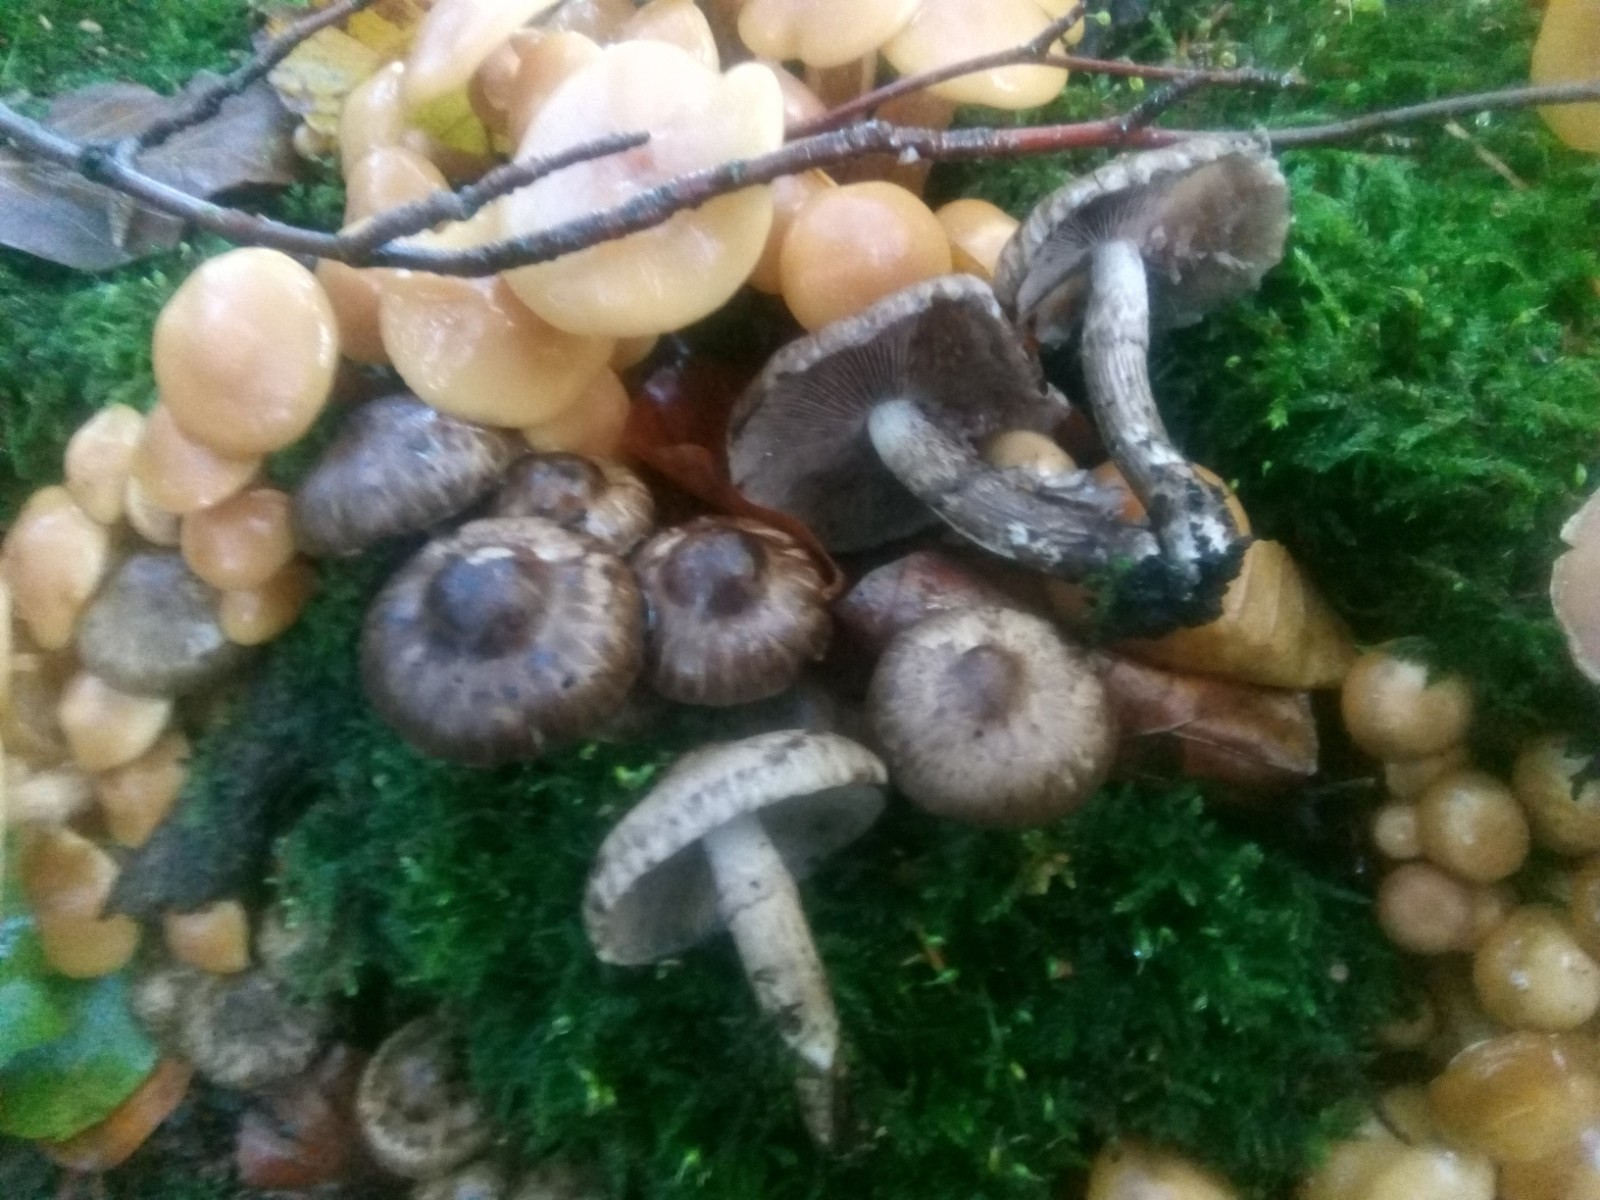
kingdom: Fungi
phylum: Basidiomycota
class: Agaricomycetes
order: Agaricales
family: Psathyrellaceae
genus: Psathyrella
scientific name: Psathyrella maculata
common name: sortskællet mørkhat
